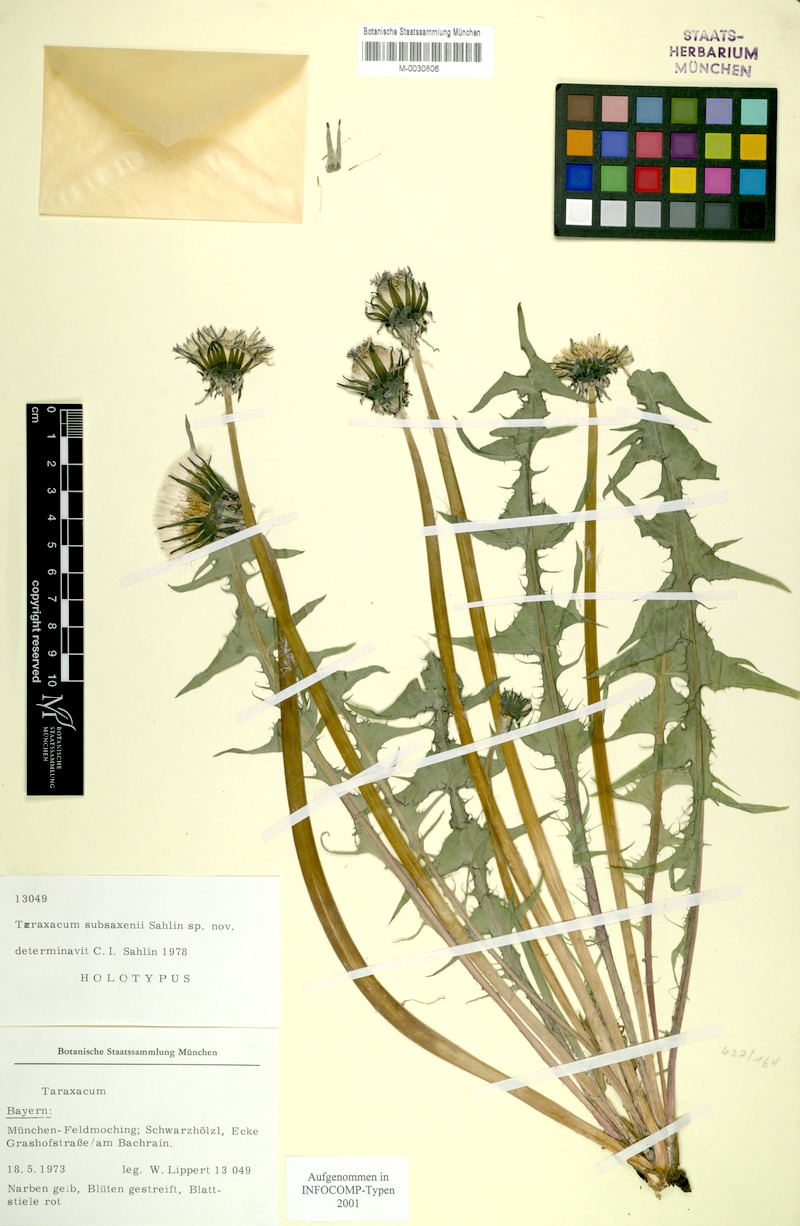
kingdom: Plantae
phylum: Tracheophyta
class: Magnoliopsida
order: Asterales
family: Asteraceae
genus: Taraxacum
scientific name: Taraxacum subsaxenii
